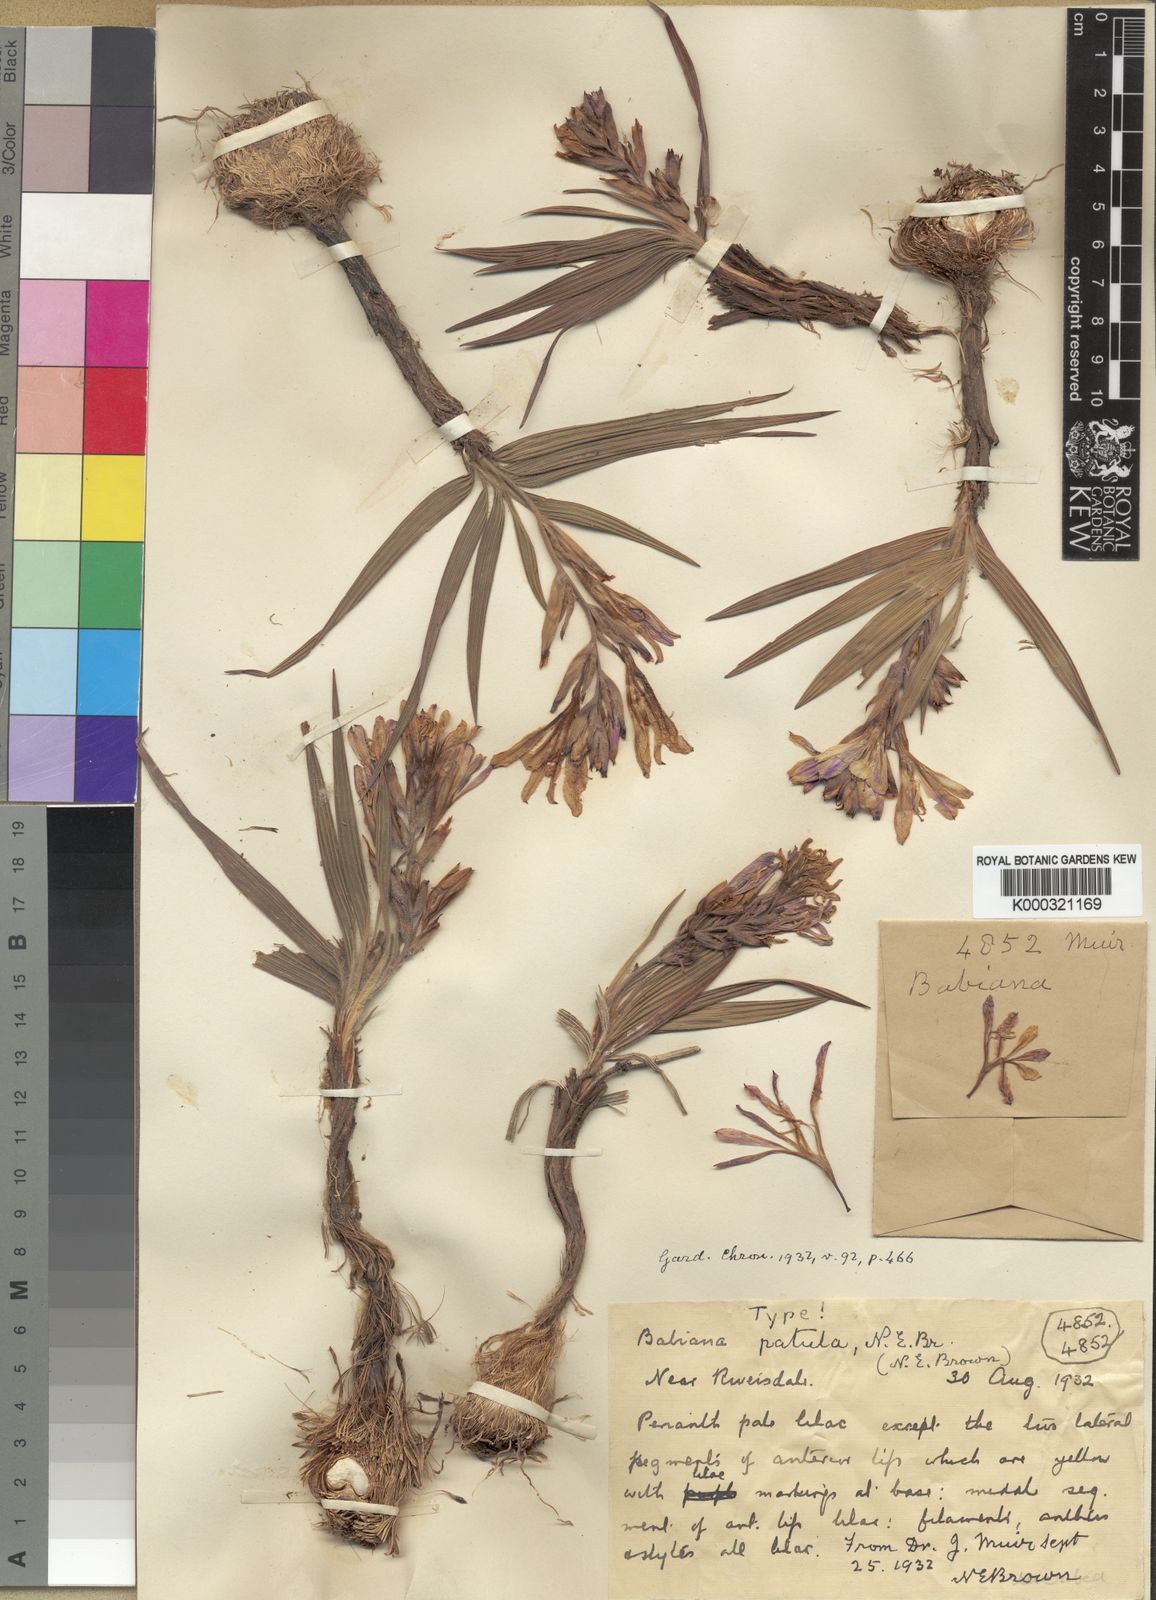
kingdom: Plantae
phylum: Tracheophyta
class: Liliopsida
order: Asparagales
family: Iridaceae
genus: Babiana
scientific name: Babiana patula
